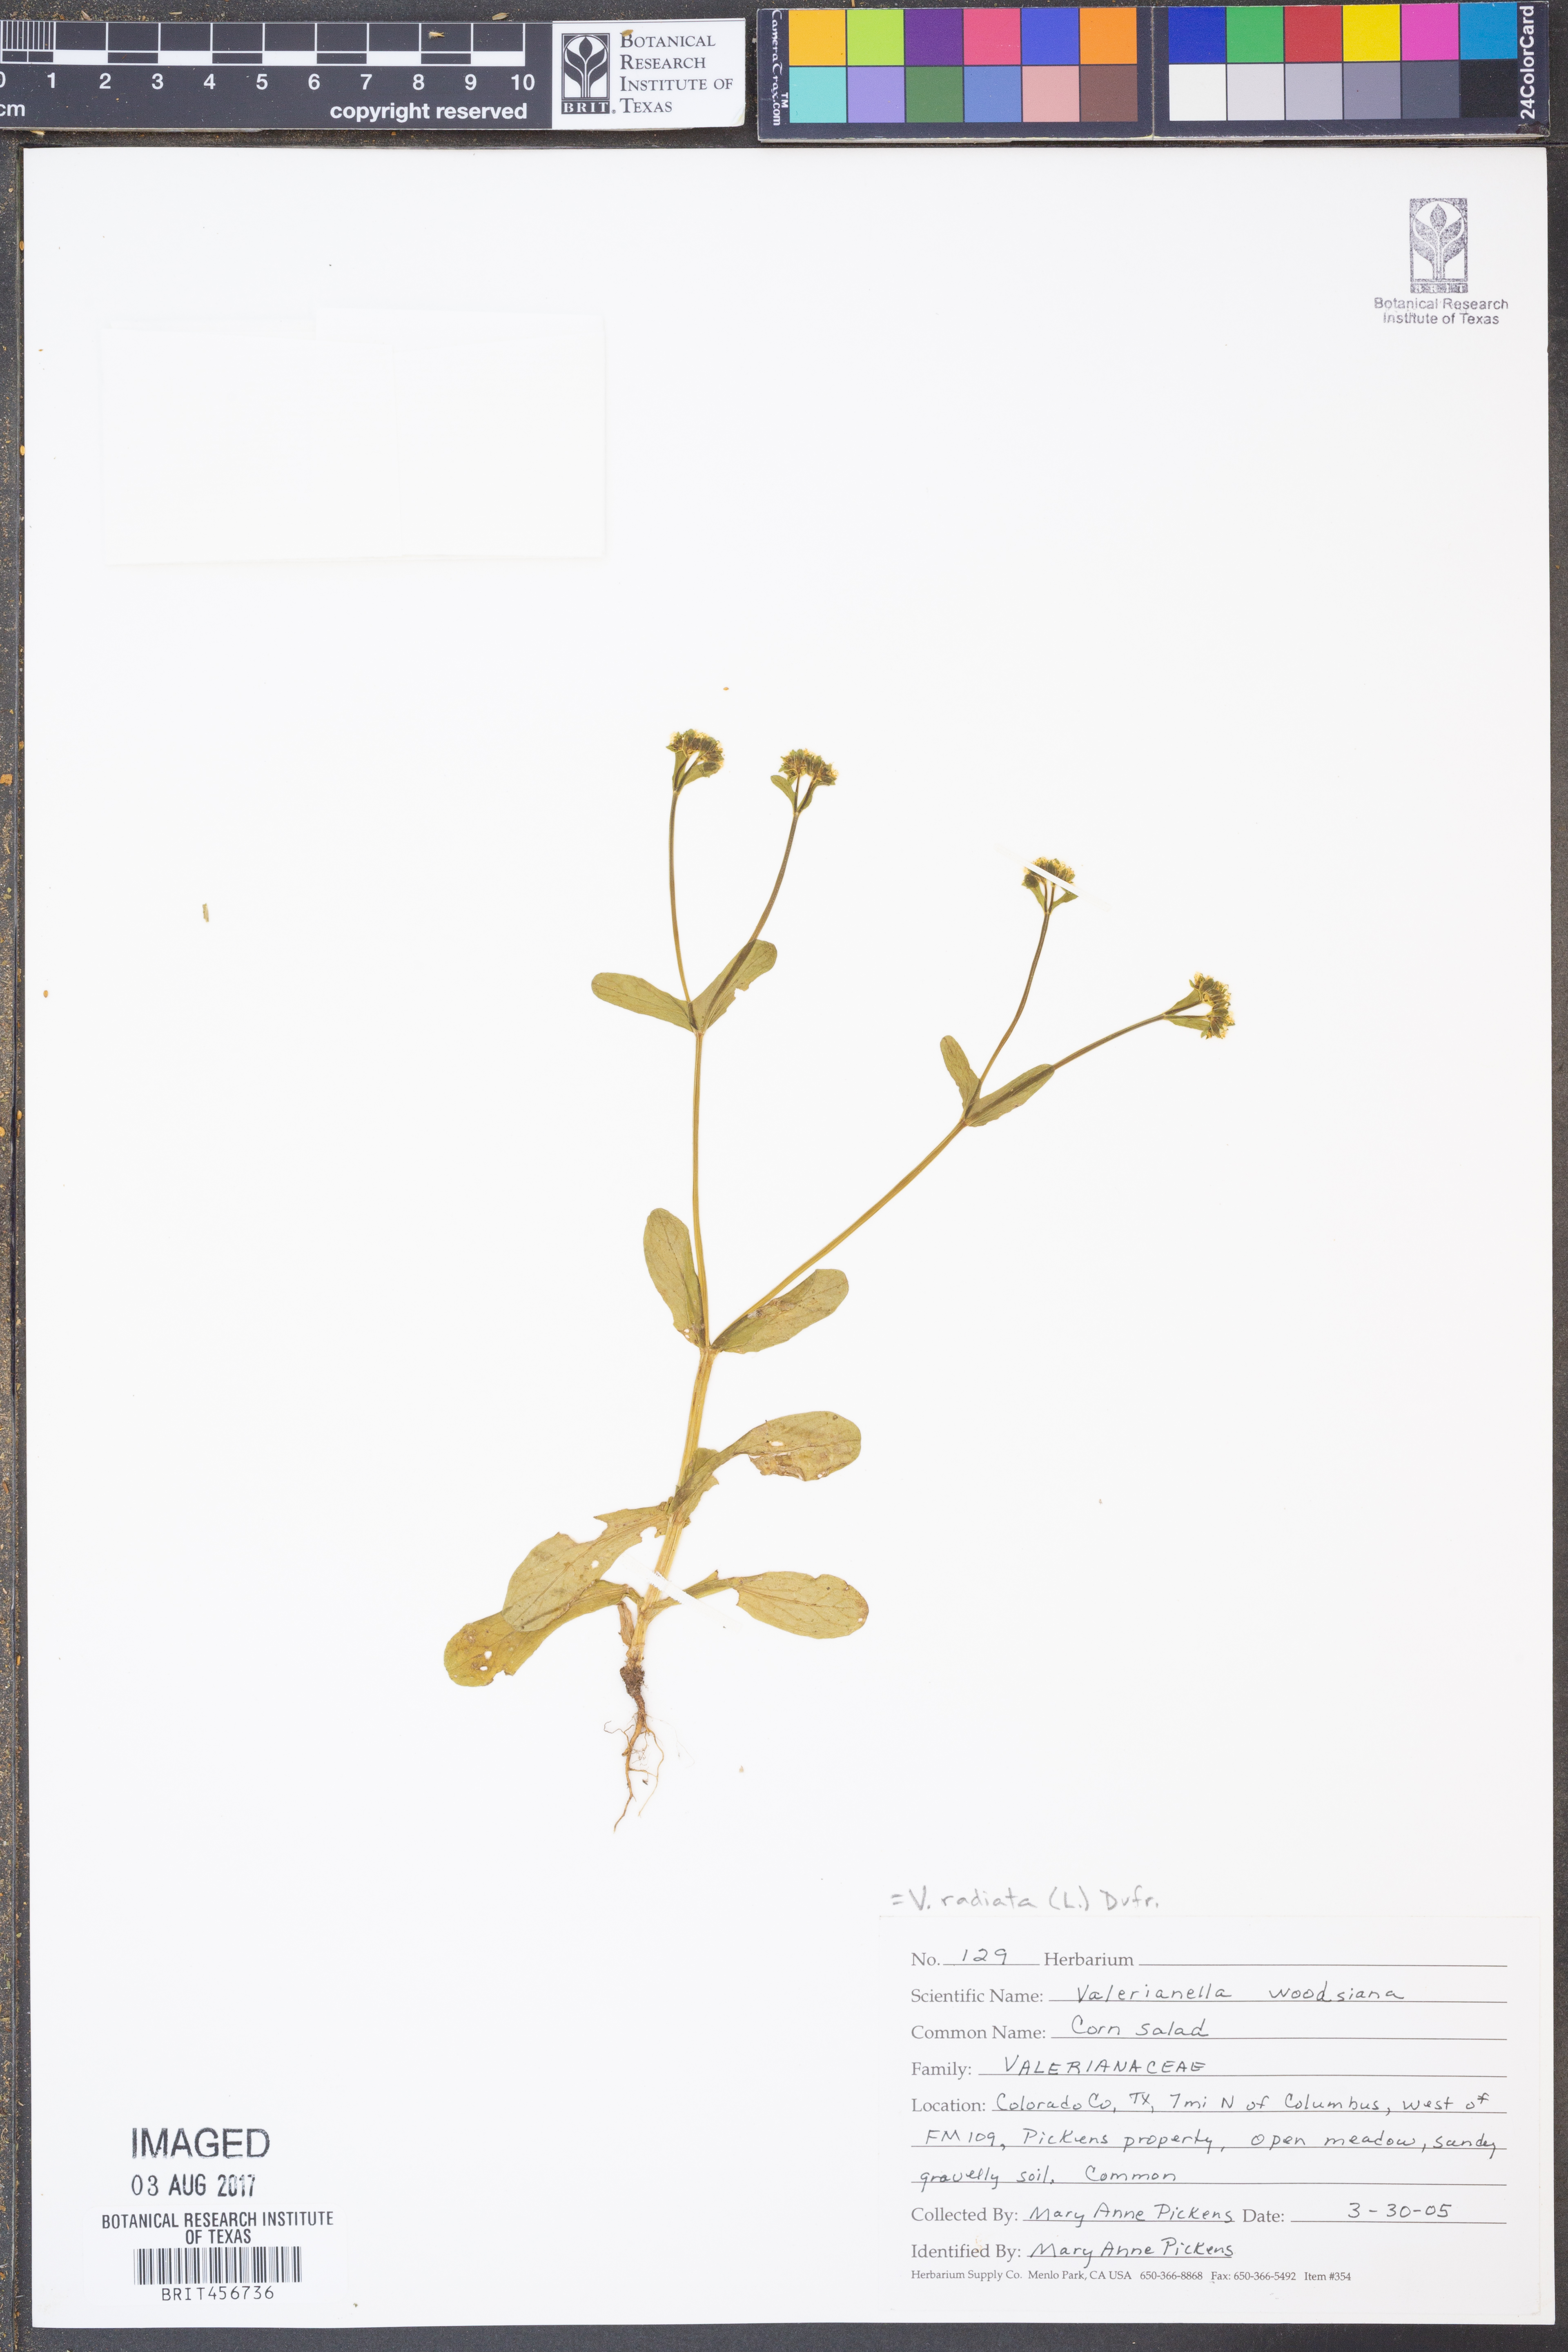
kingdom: Plantae
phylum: Tracheophyta
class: Magnoliopsida
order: Dipsacales
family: Caprifoliaceae
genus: Valerianella
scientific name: Valerianella radiata
